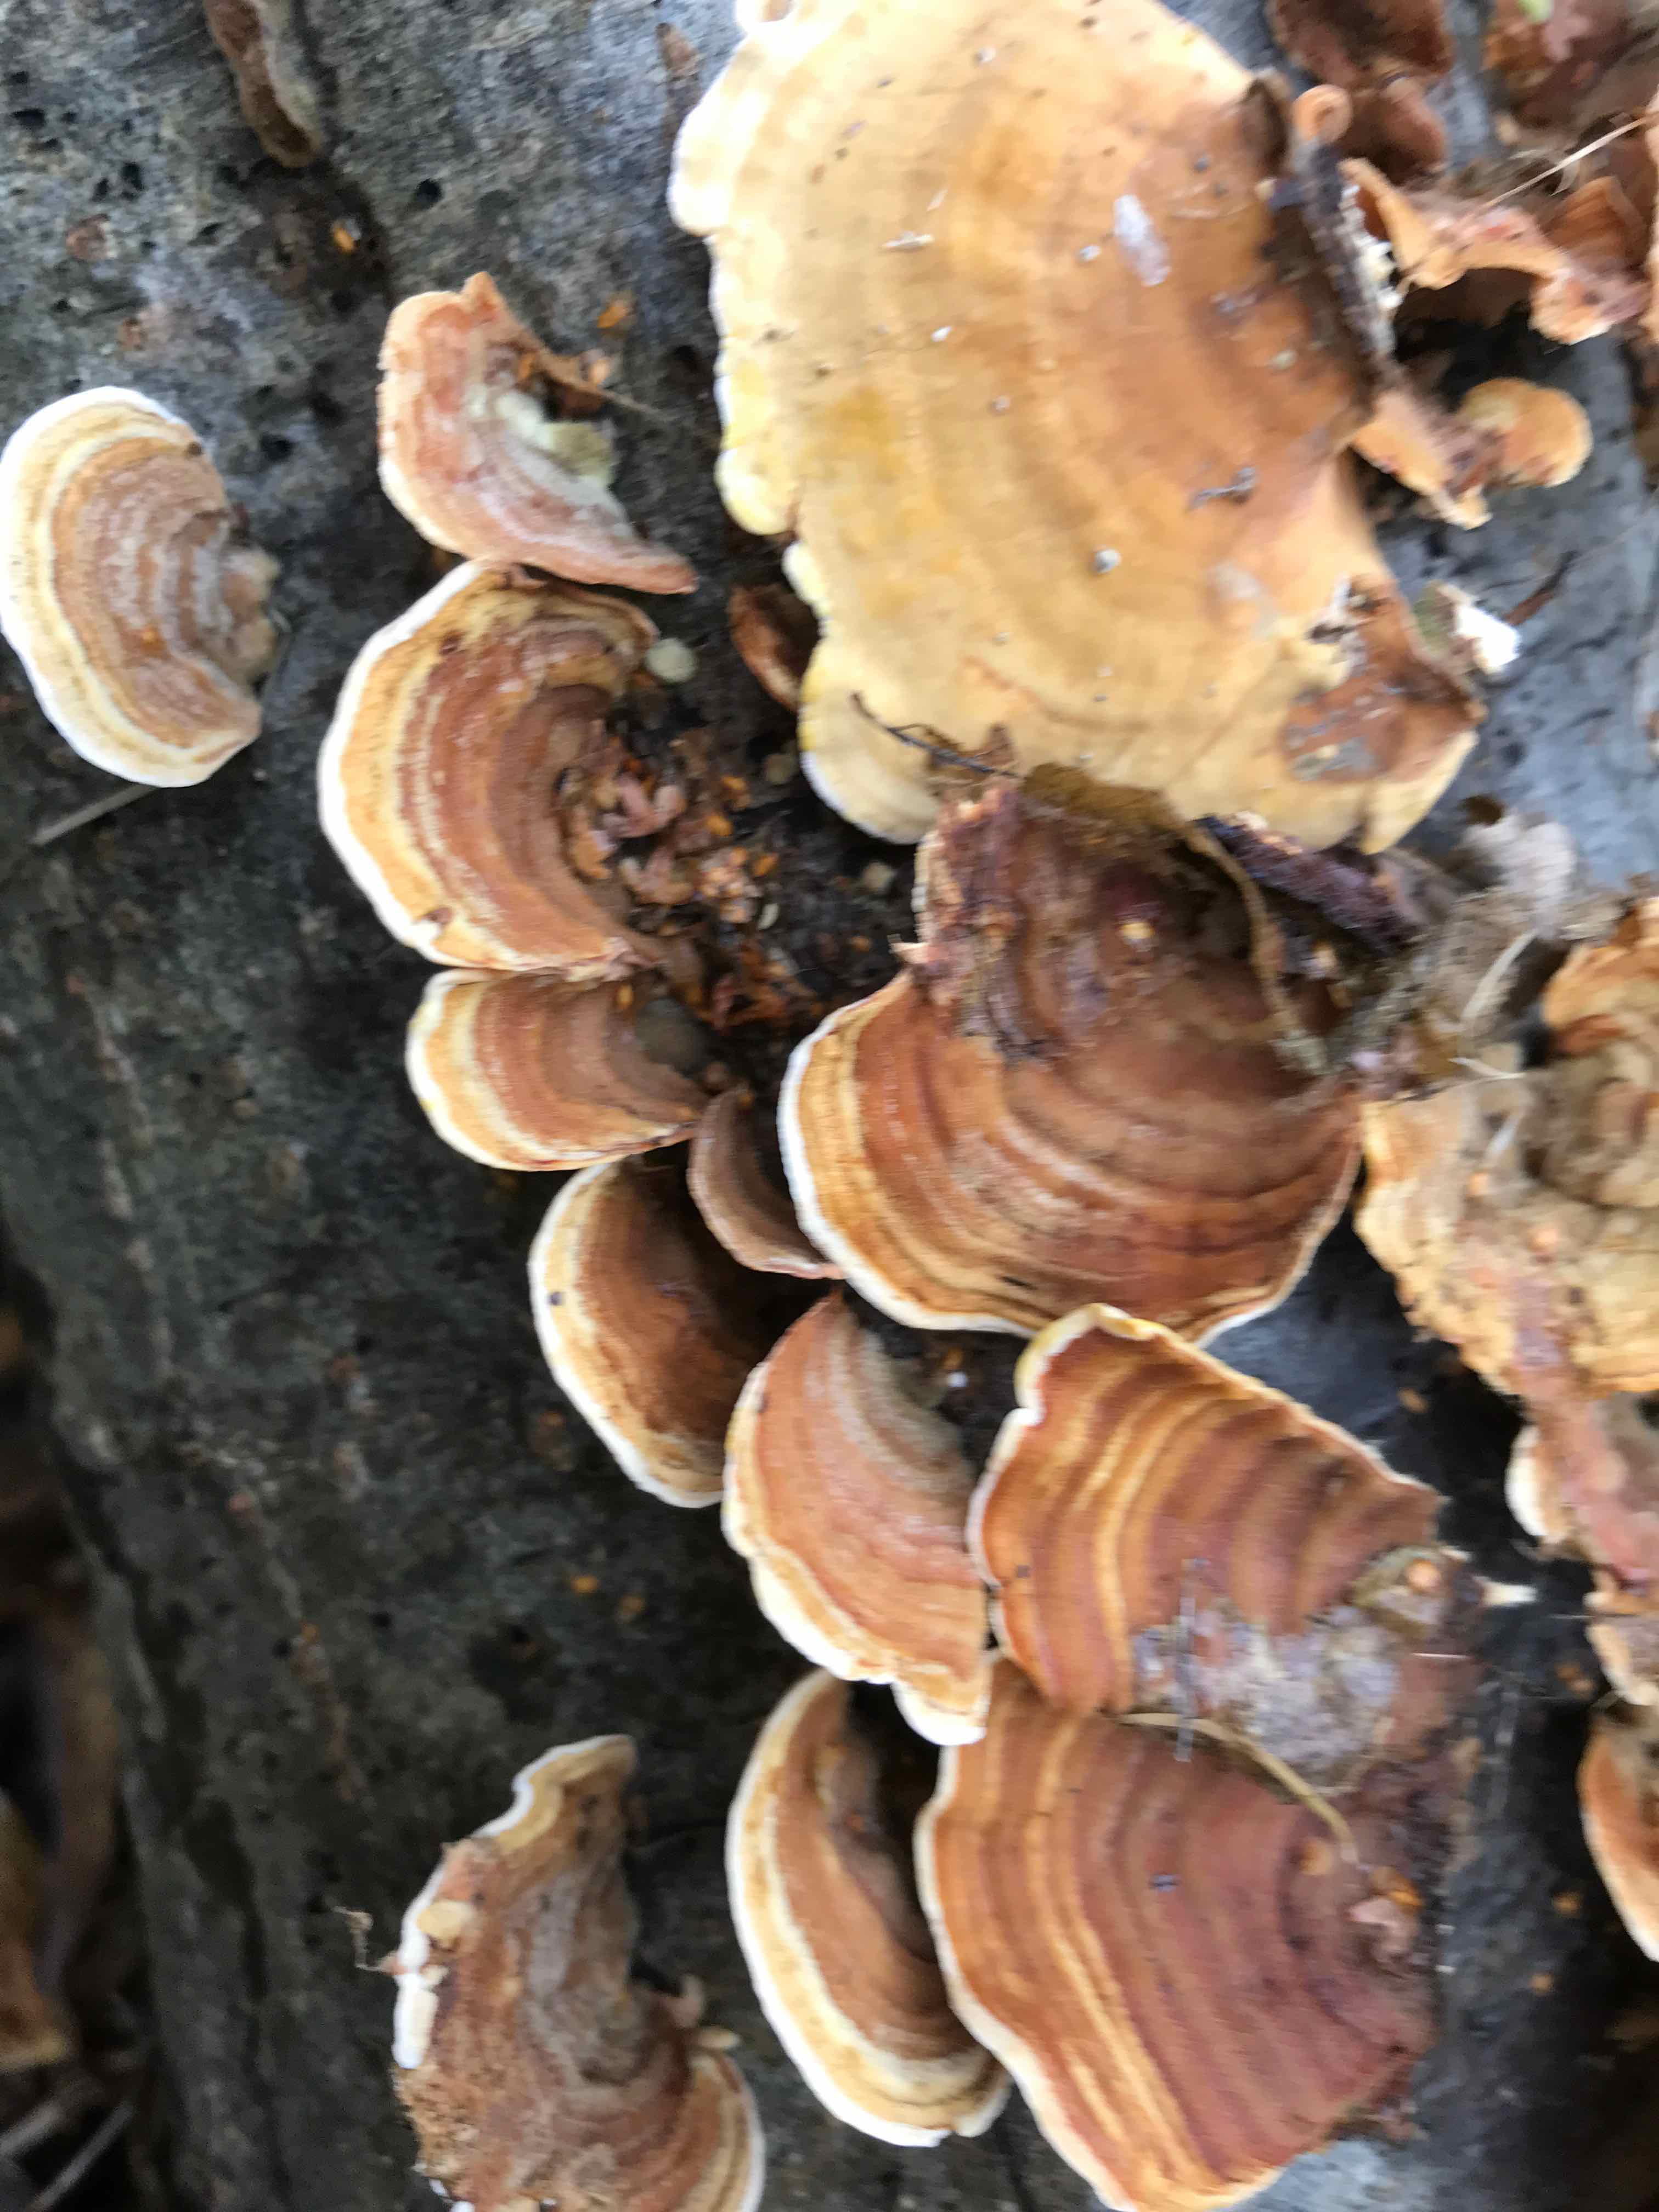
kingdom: Fungi
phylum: Basidiomycota
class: Agaricomycetes
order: Russulales
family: Stereaceae
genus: Stereum
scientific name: Stereum subtomentosum
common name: smuk lædersvamp
